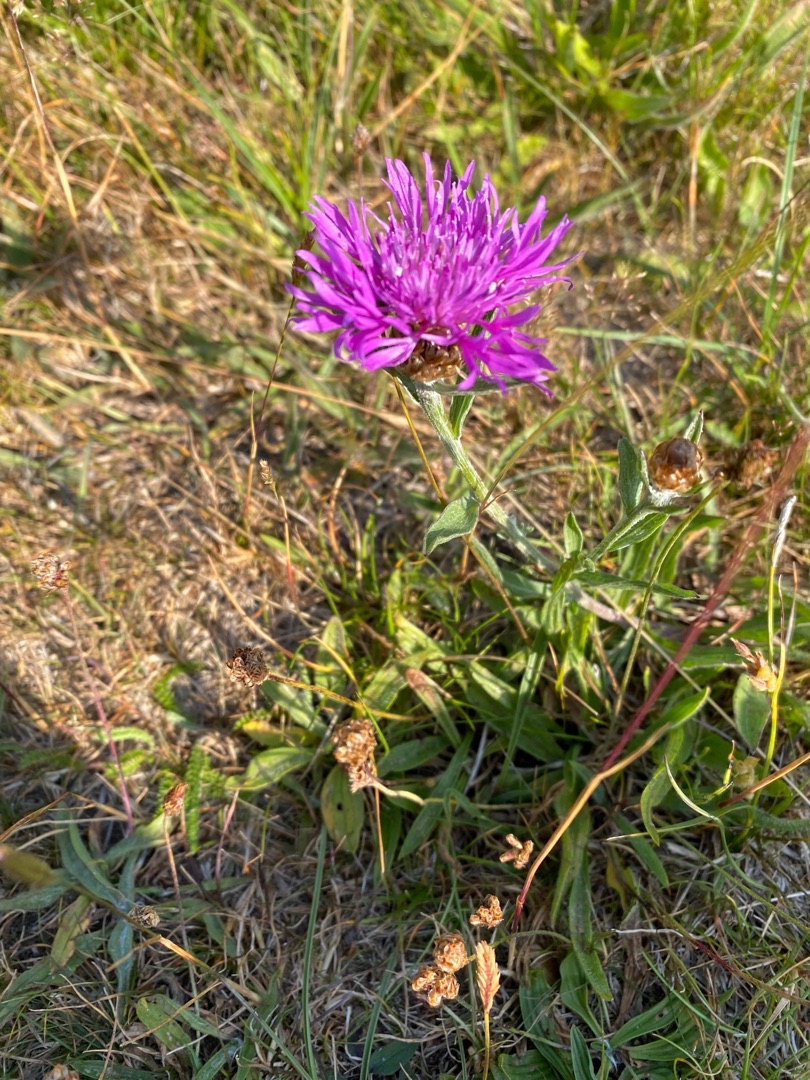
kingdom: Plantae
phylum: Tracheophyta
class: Magnoliopsida
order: Asterales
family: Asteraceae
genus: Centaurea
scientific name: Centaurea jacea
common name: Almindelig knopurt
